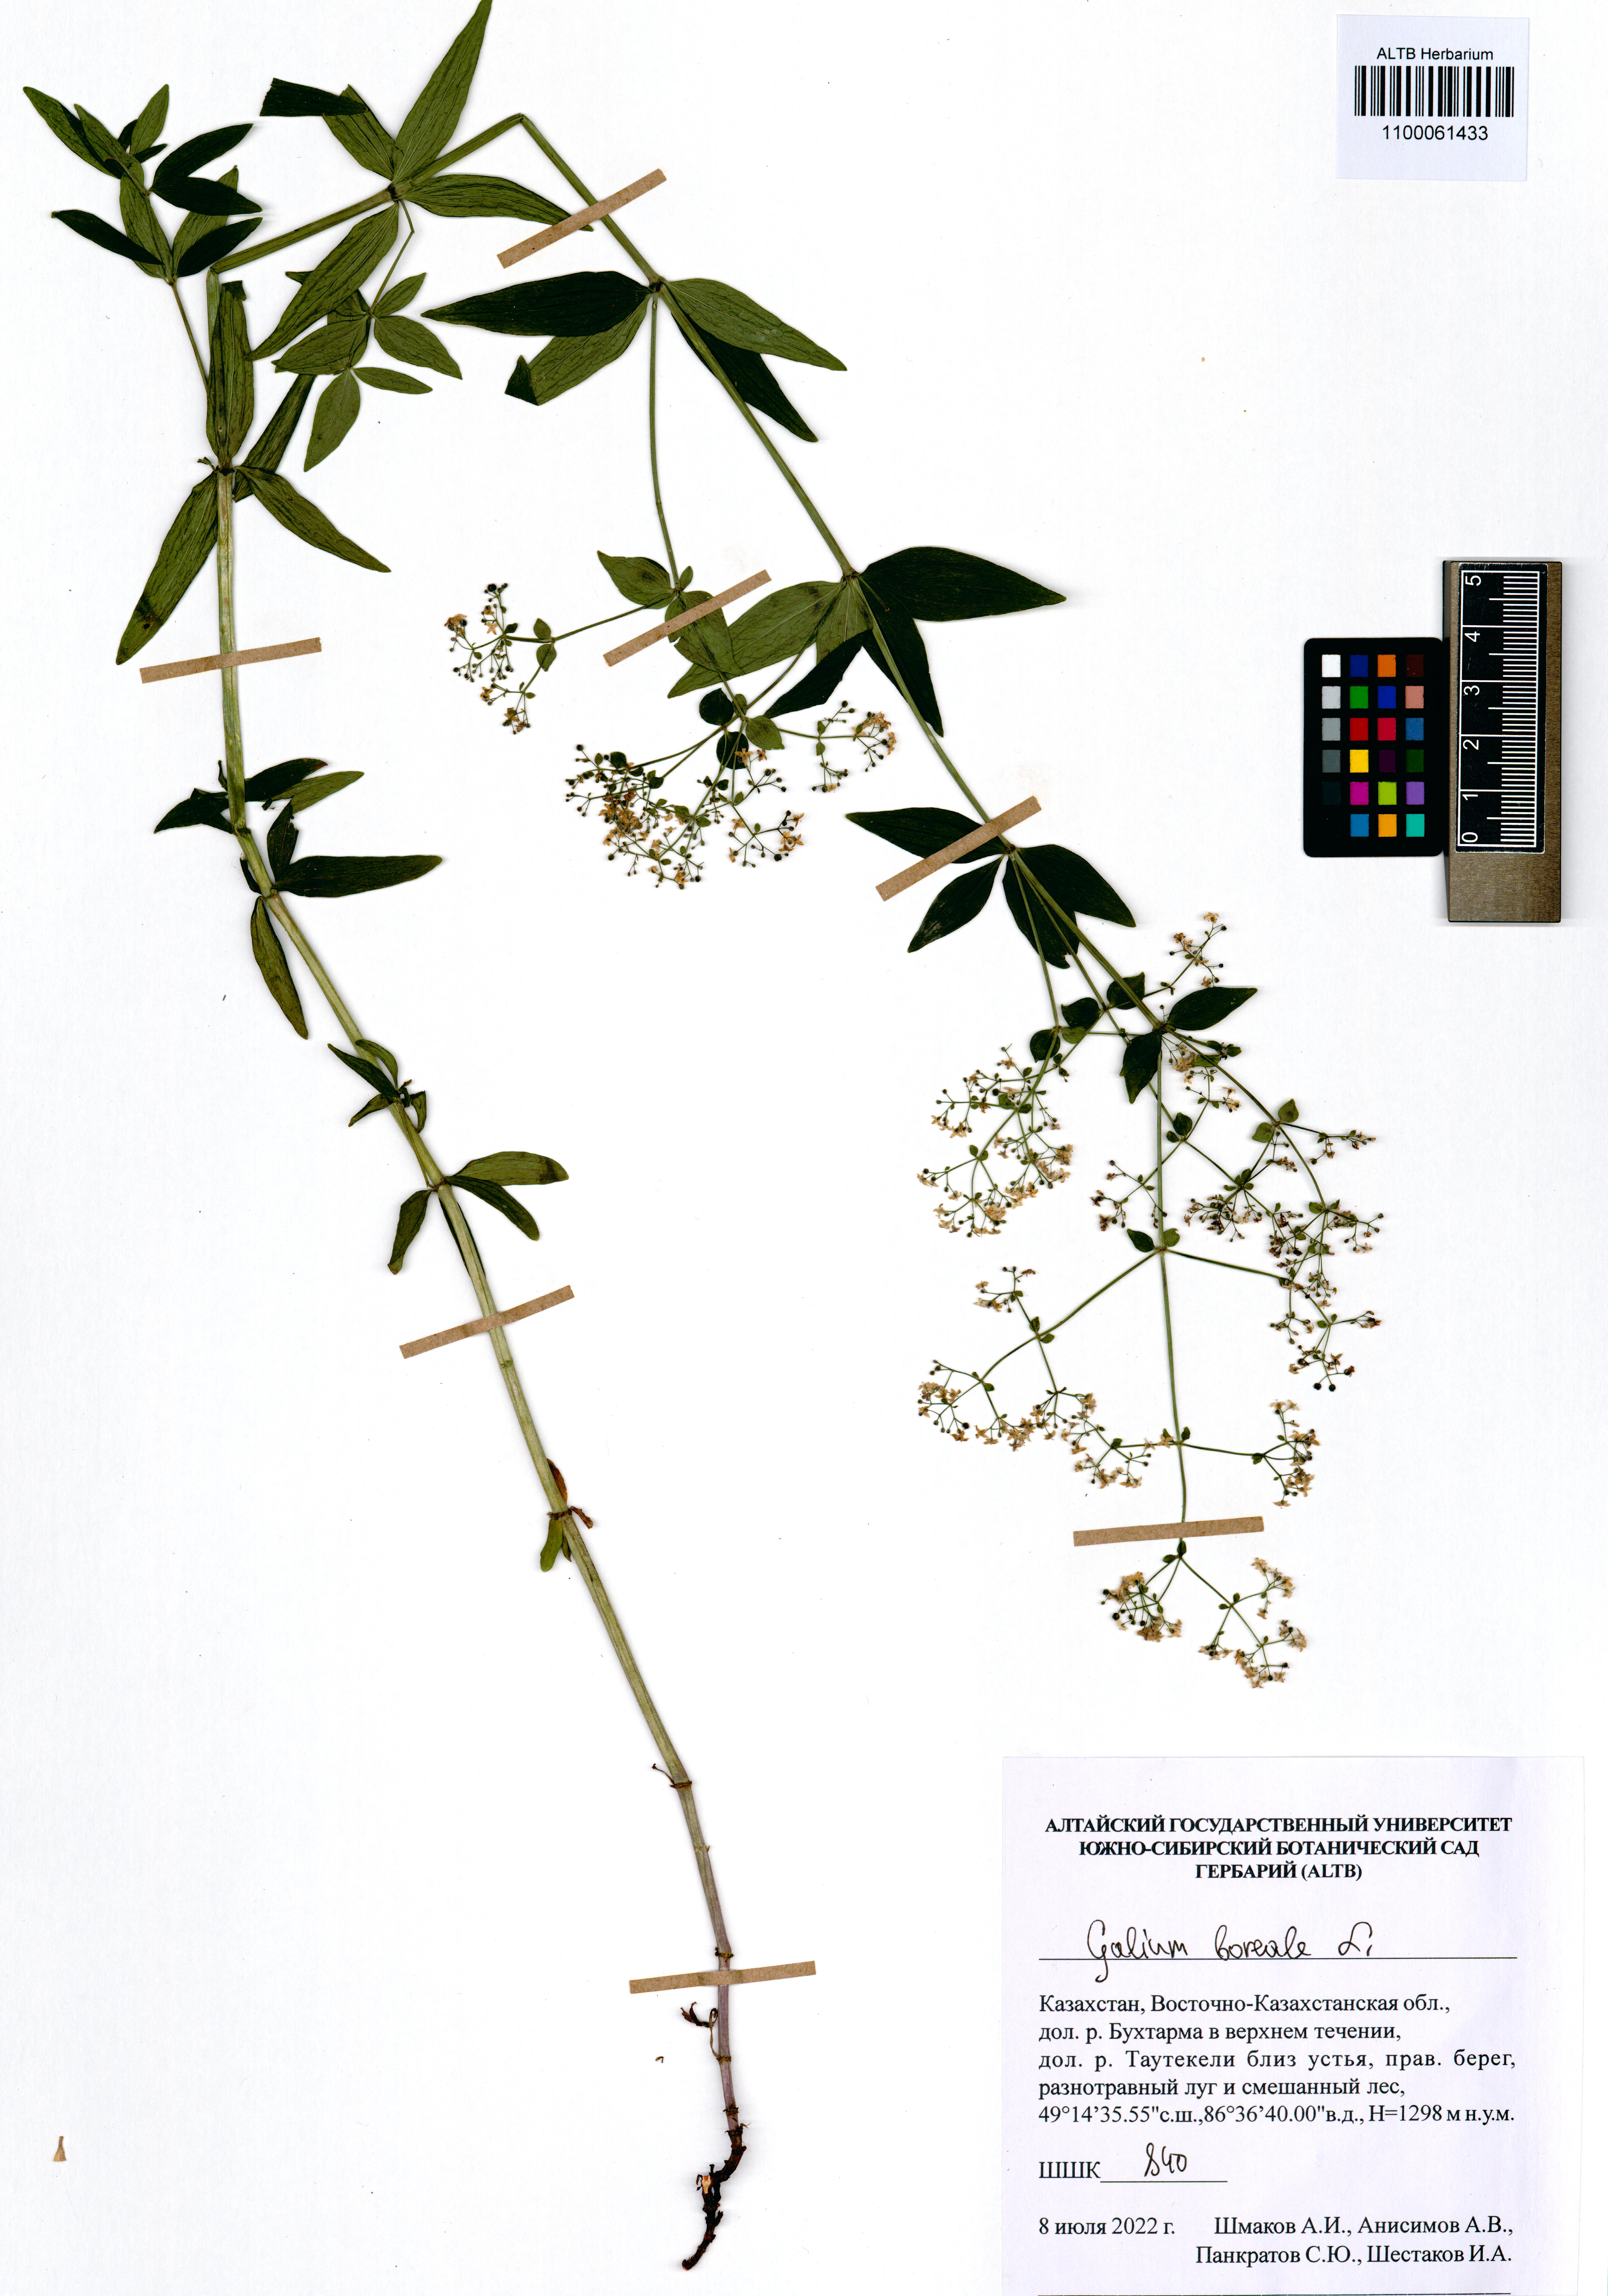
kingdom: Plantae
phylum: Tracheophyta
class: Magnoliopsida
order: Gentianales
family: Rubiaceae
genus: Galium
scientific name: Galium boreale
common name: Northern bedstraw
